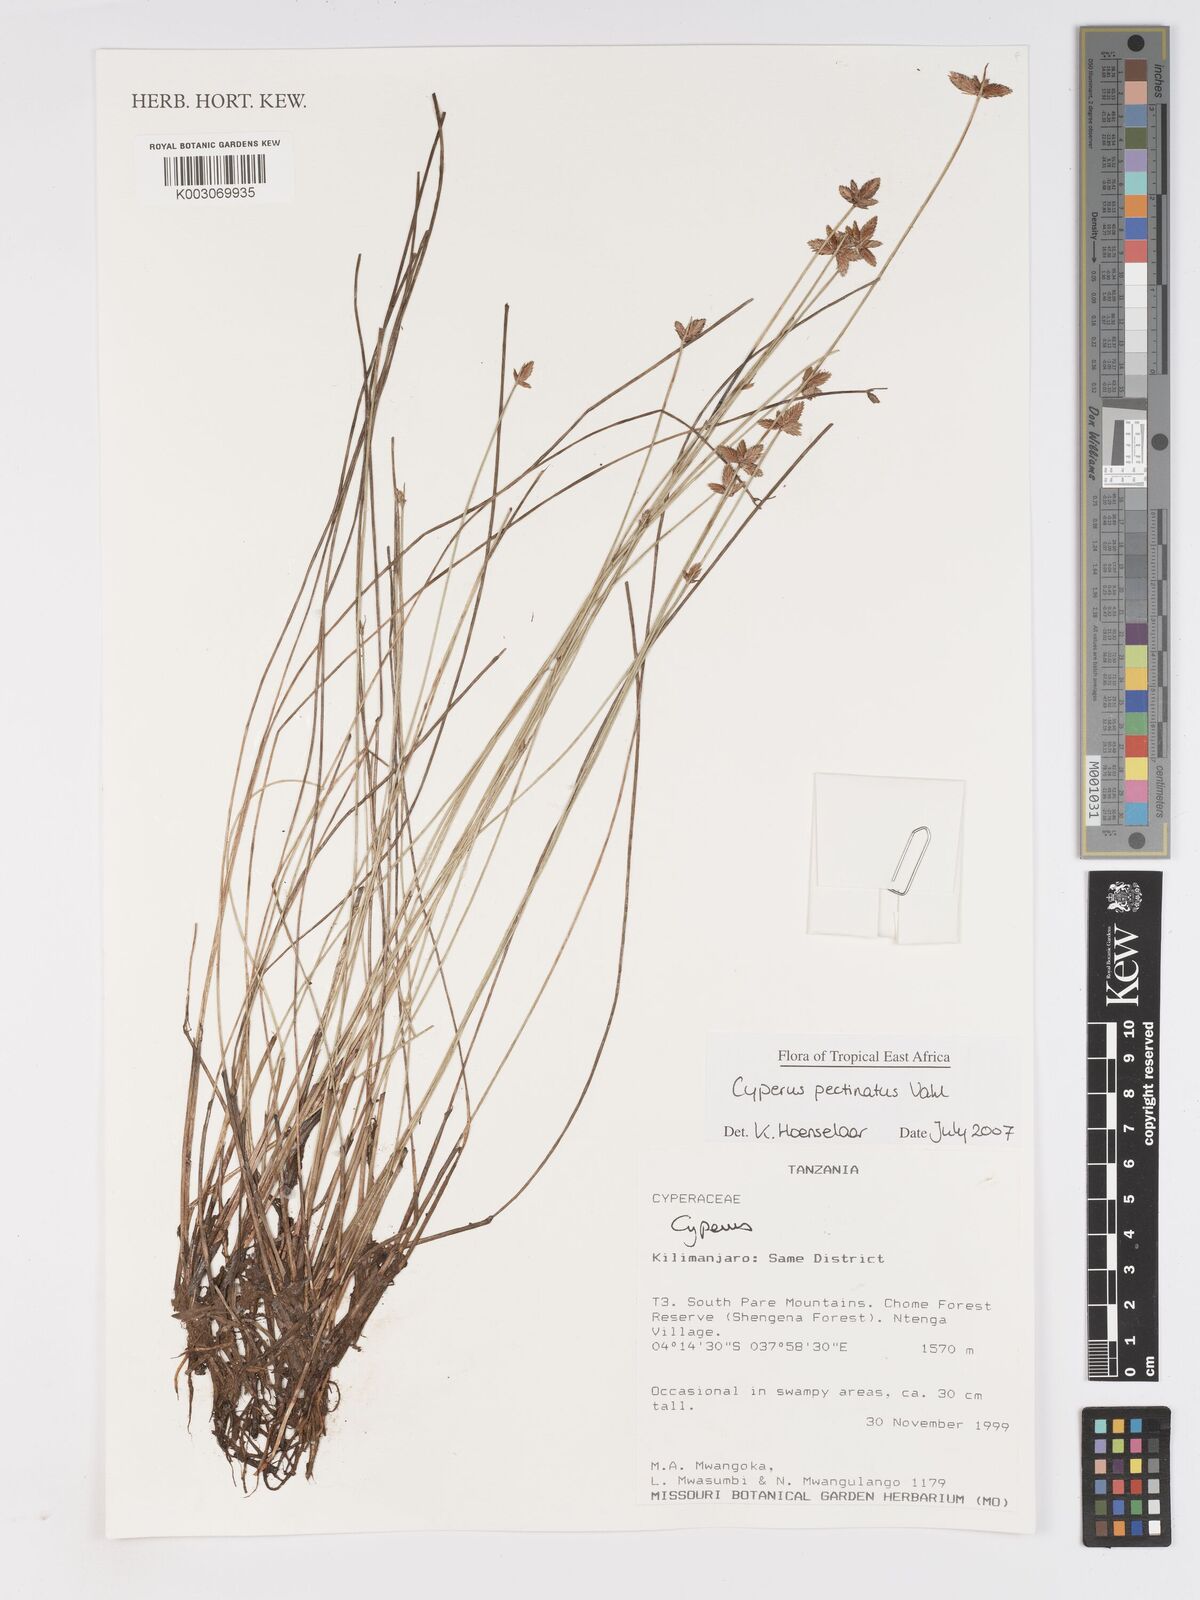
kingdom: Plantae
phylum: Tracheophyta
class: Liliopsida
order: Poales
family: Cyperaceae
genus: Cyperus
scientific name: Cyperus pectinatus
